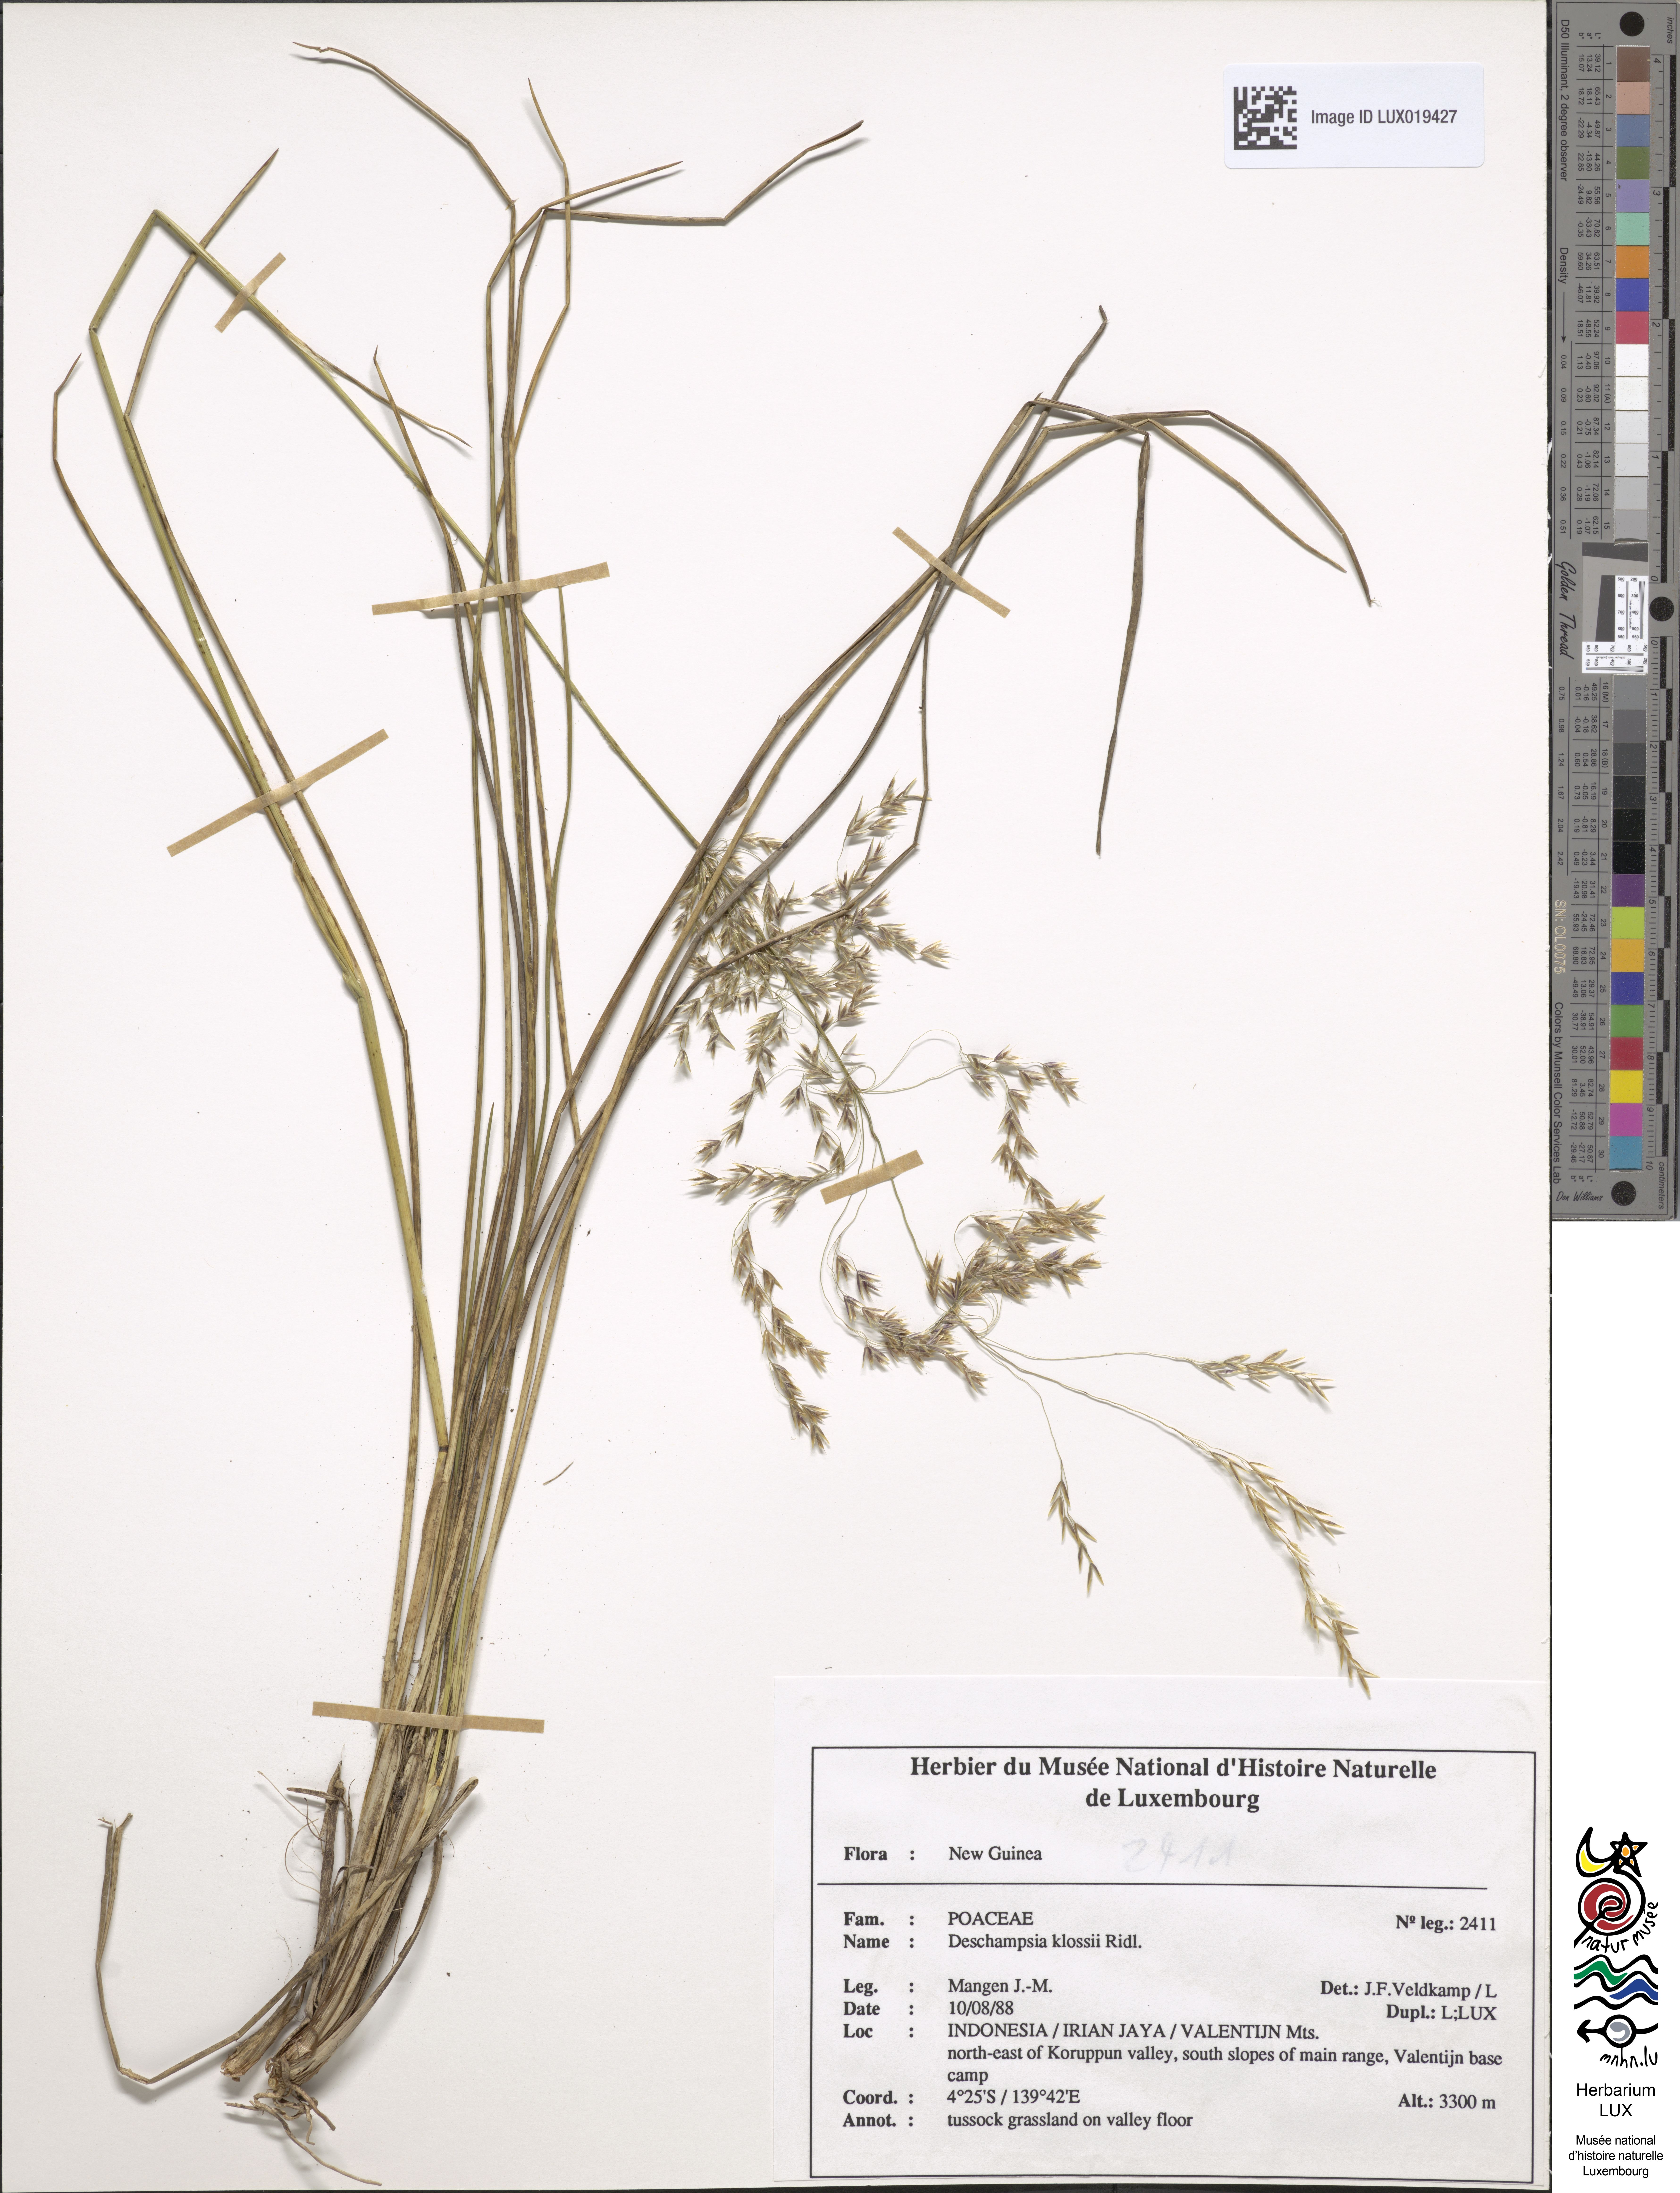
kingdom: Plantae
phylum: Tracheophyta
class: Liliopsida
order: Poales
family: Poaceae
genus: Deschampsia
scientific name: Deschampsia klossii
